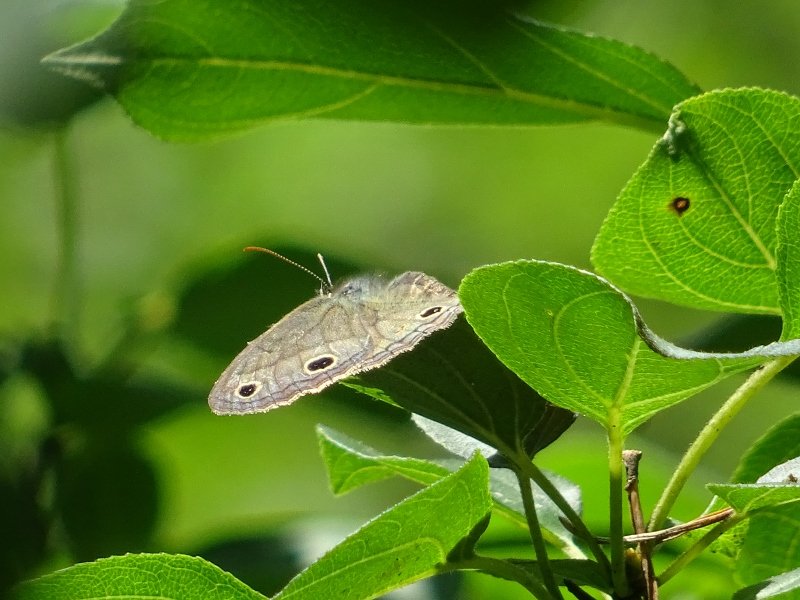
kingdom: Animalia
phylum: Arthropoda
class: Insecta
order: Lepidoptera
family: Nymphalidae
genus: Euptychia
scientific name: Euptychia cymela
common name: Little Wood Satyr
